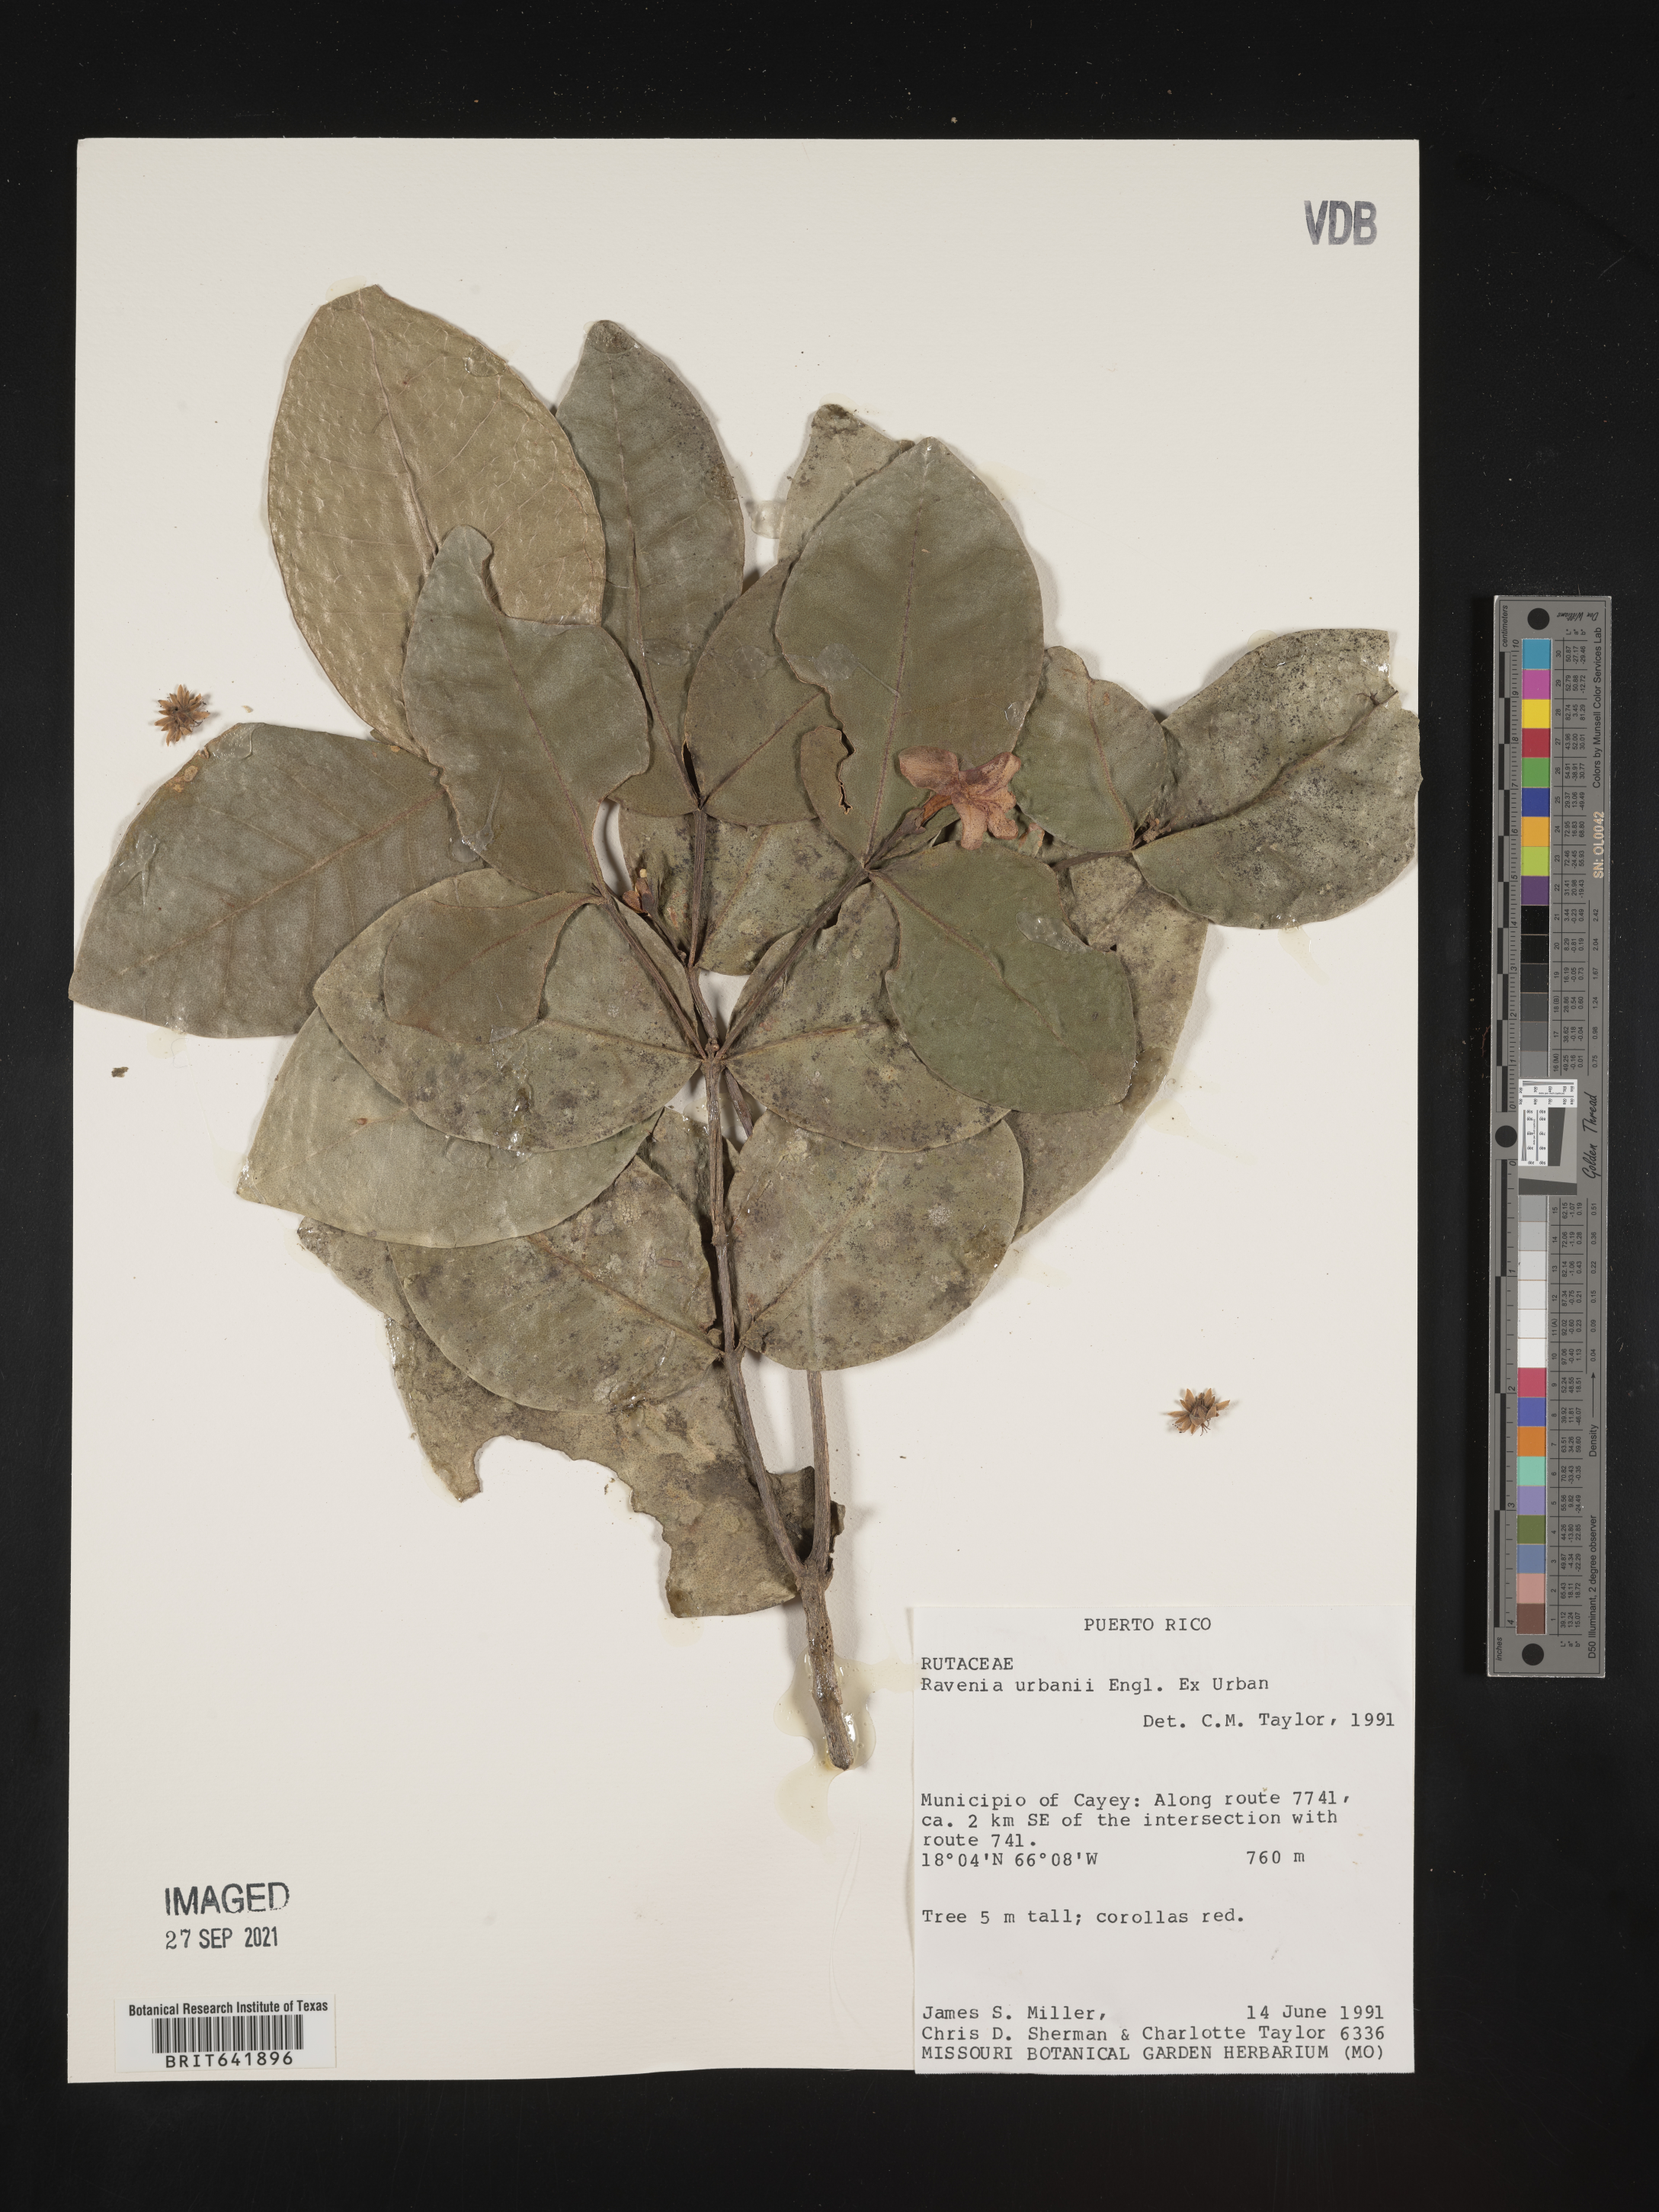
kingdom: Plantae
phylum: Tracheophyta
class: Magnoliopsida
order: Sapindales
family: Rutaceae
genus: Ravenia
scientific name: Ravenia
